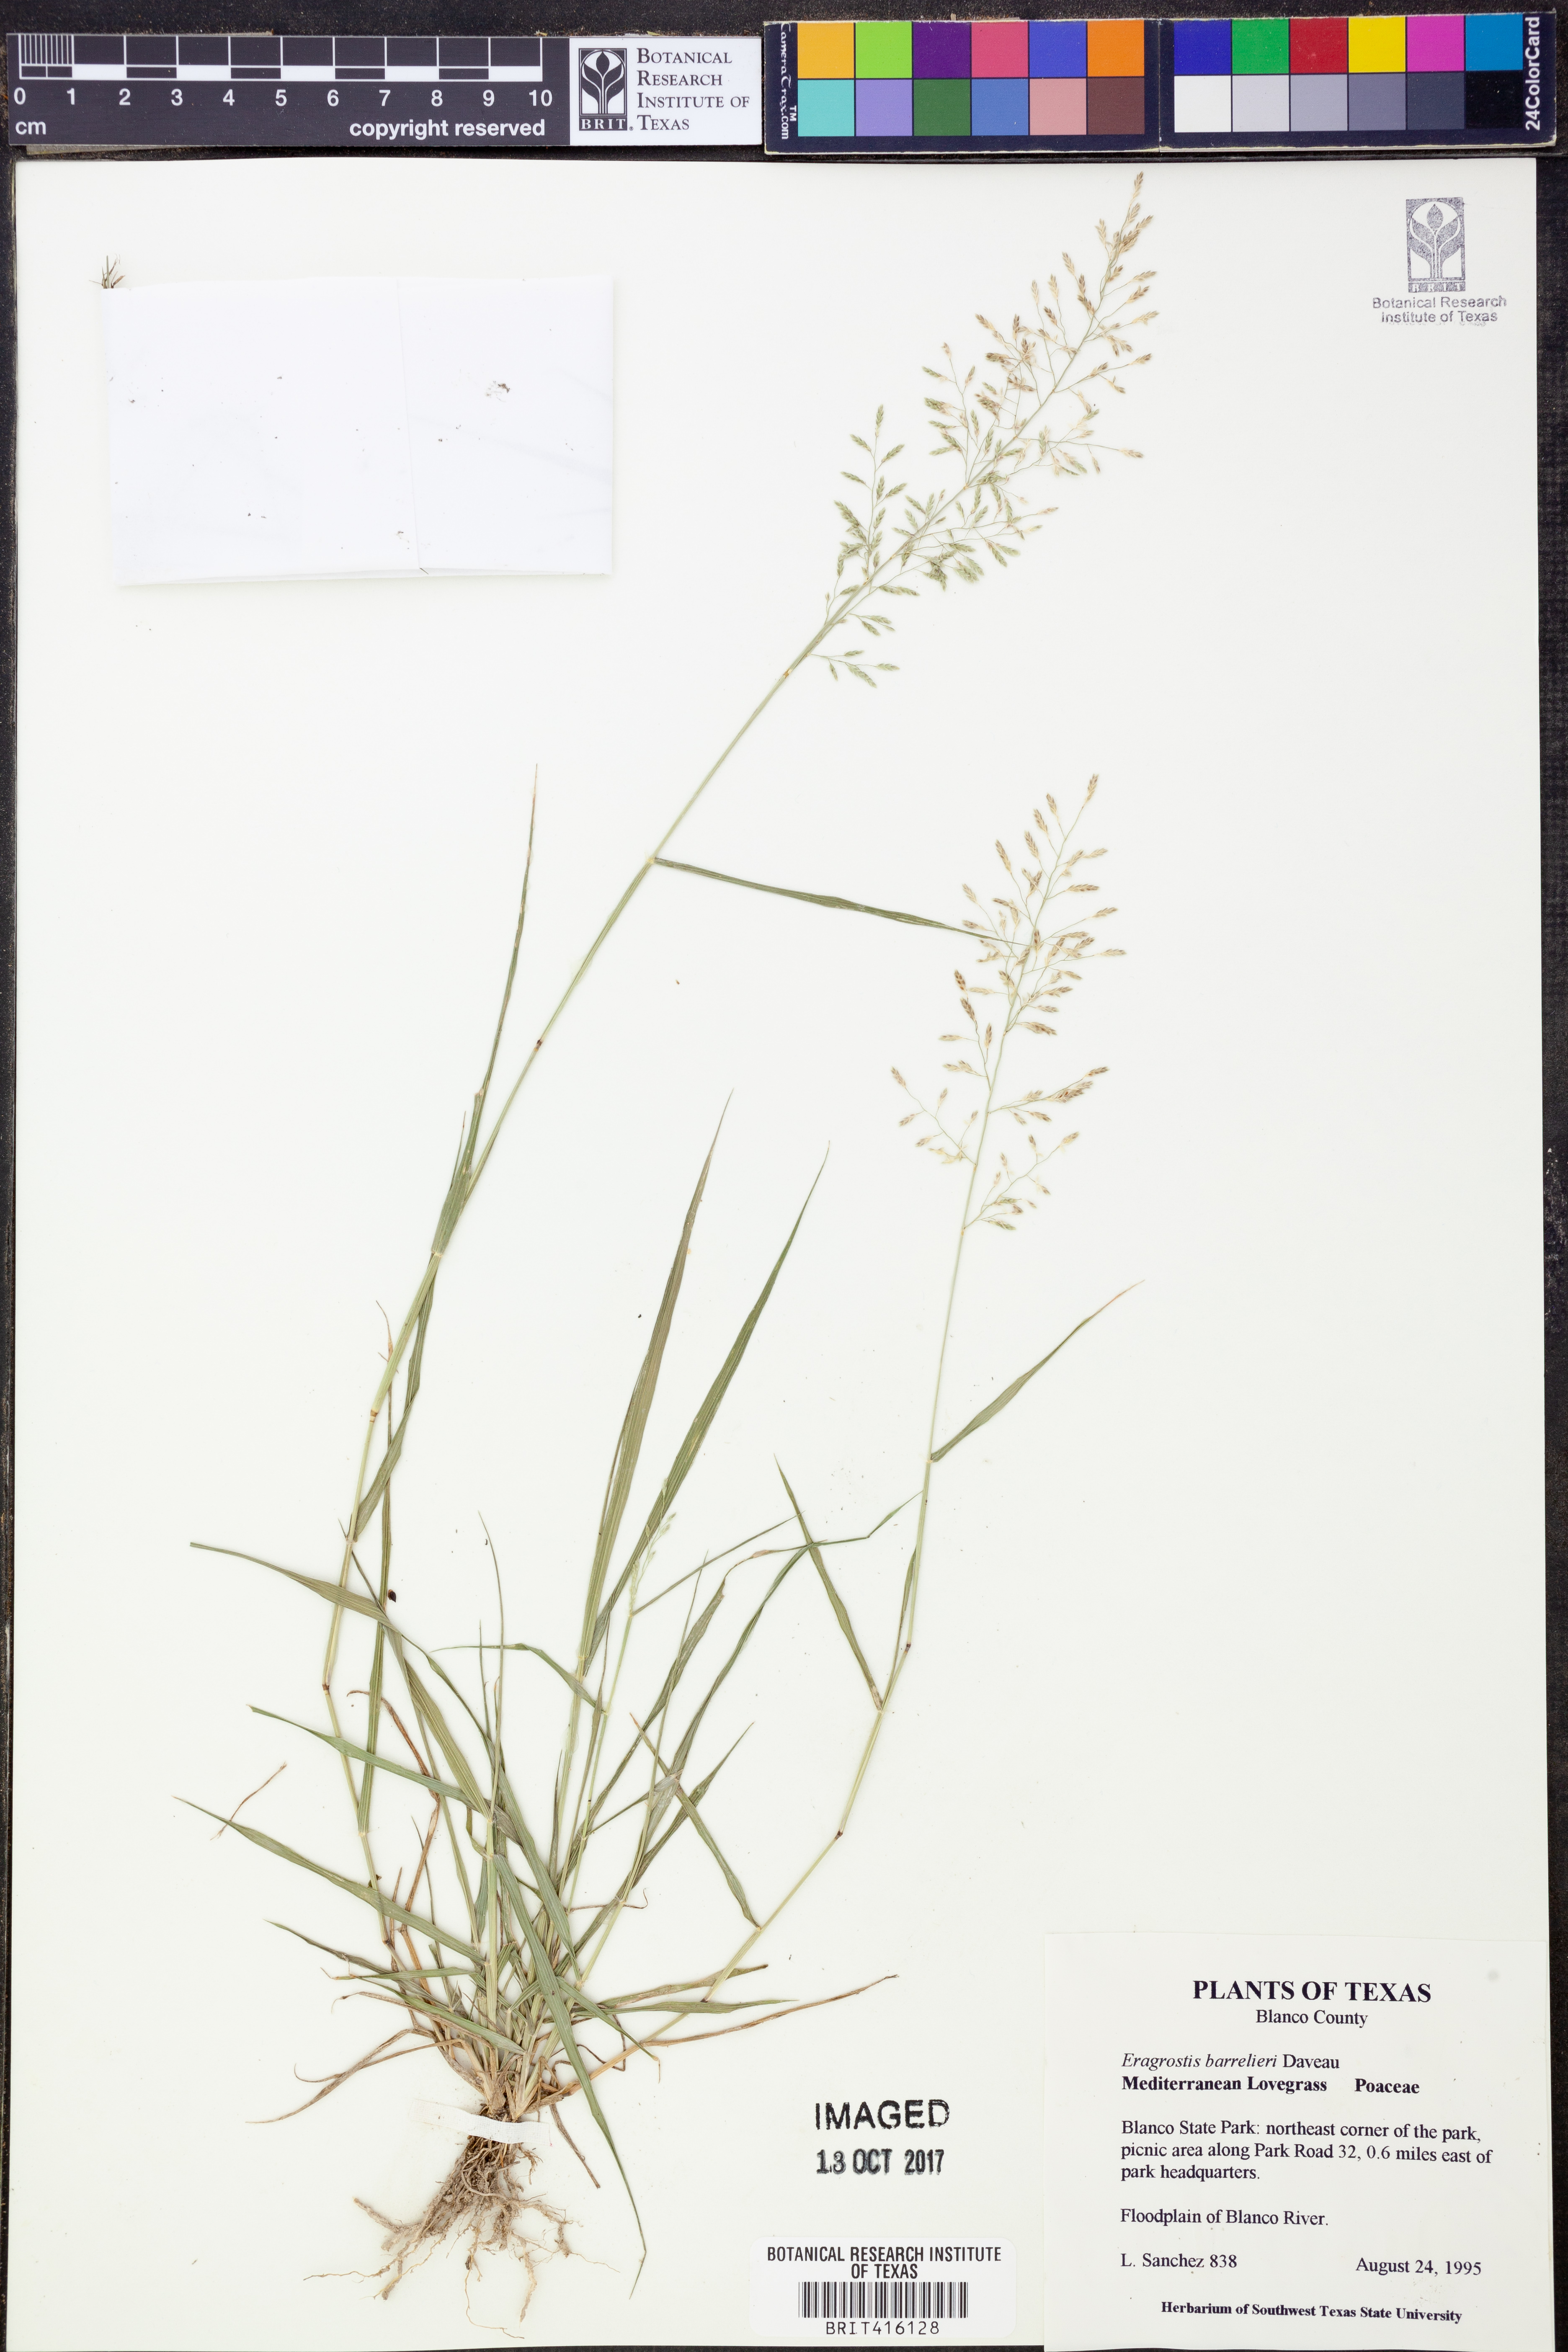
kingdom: Plantae
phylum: Tracheophyta
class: Liliopsida
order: Poales
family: Poaceae
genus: Eragrostis
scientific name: Eragrostis barrelieri
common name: Mediterranean lovegrass
